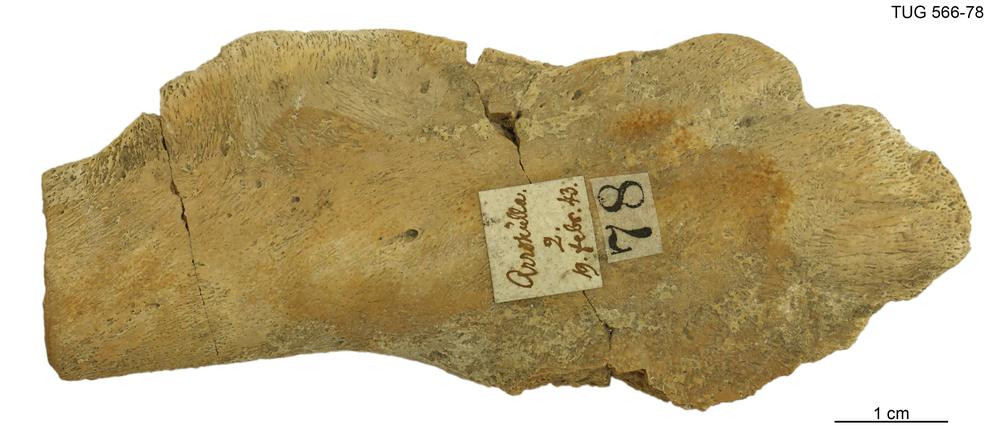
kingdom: Animalia
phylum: Chordata
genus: Homosteus
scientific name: Homosteus sulcatus
